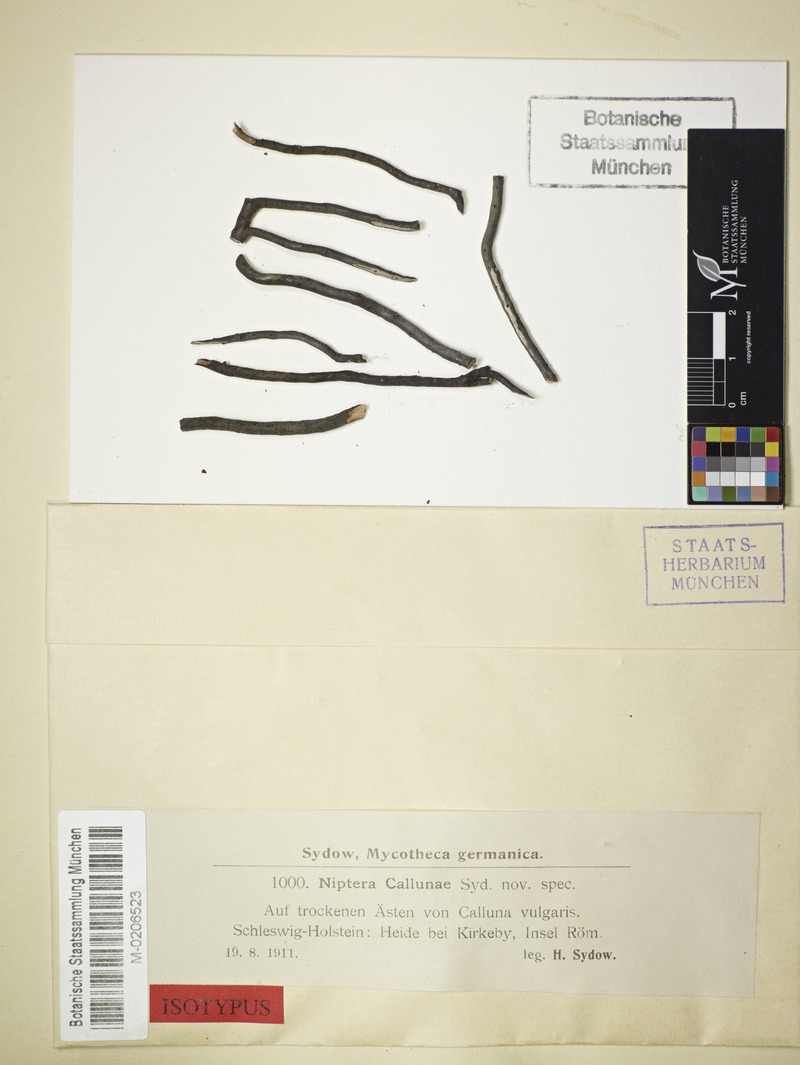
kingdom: Fungi
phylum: Ascomycota
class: Leotiomycetes
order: Helotiales
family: Mollisiaceae
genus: Niptera
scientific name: Niptera callunae
